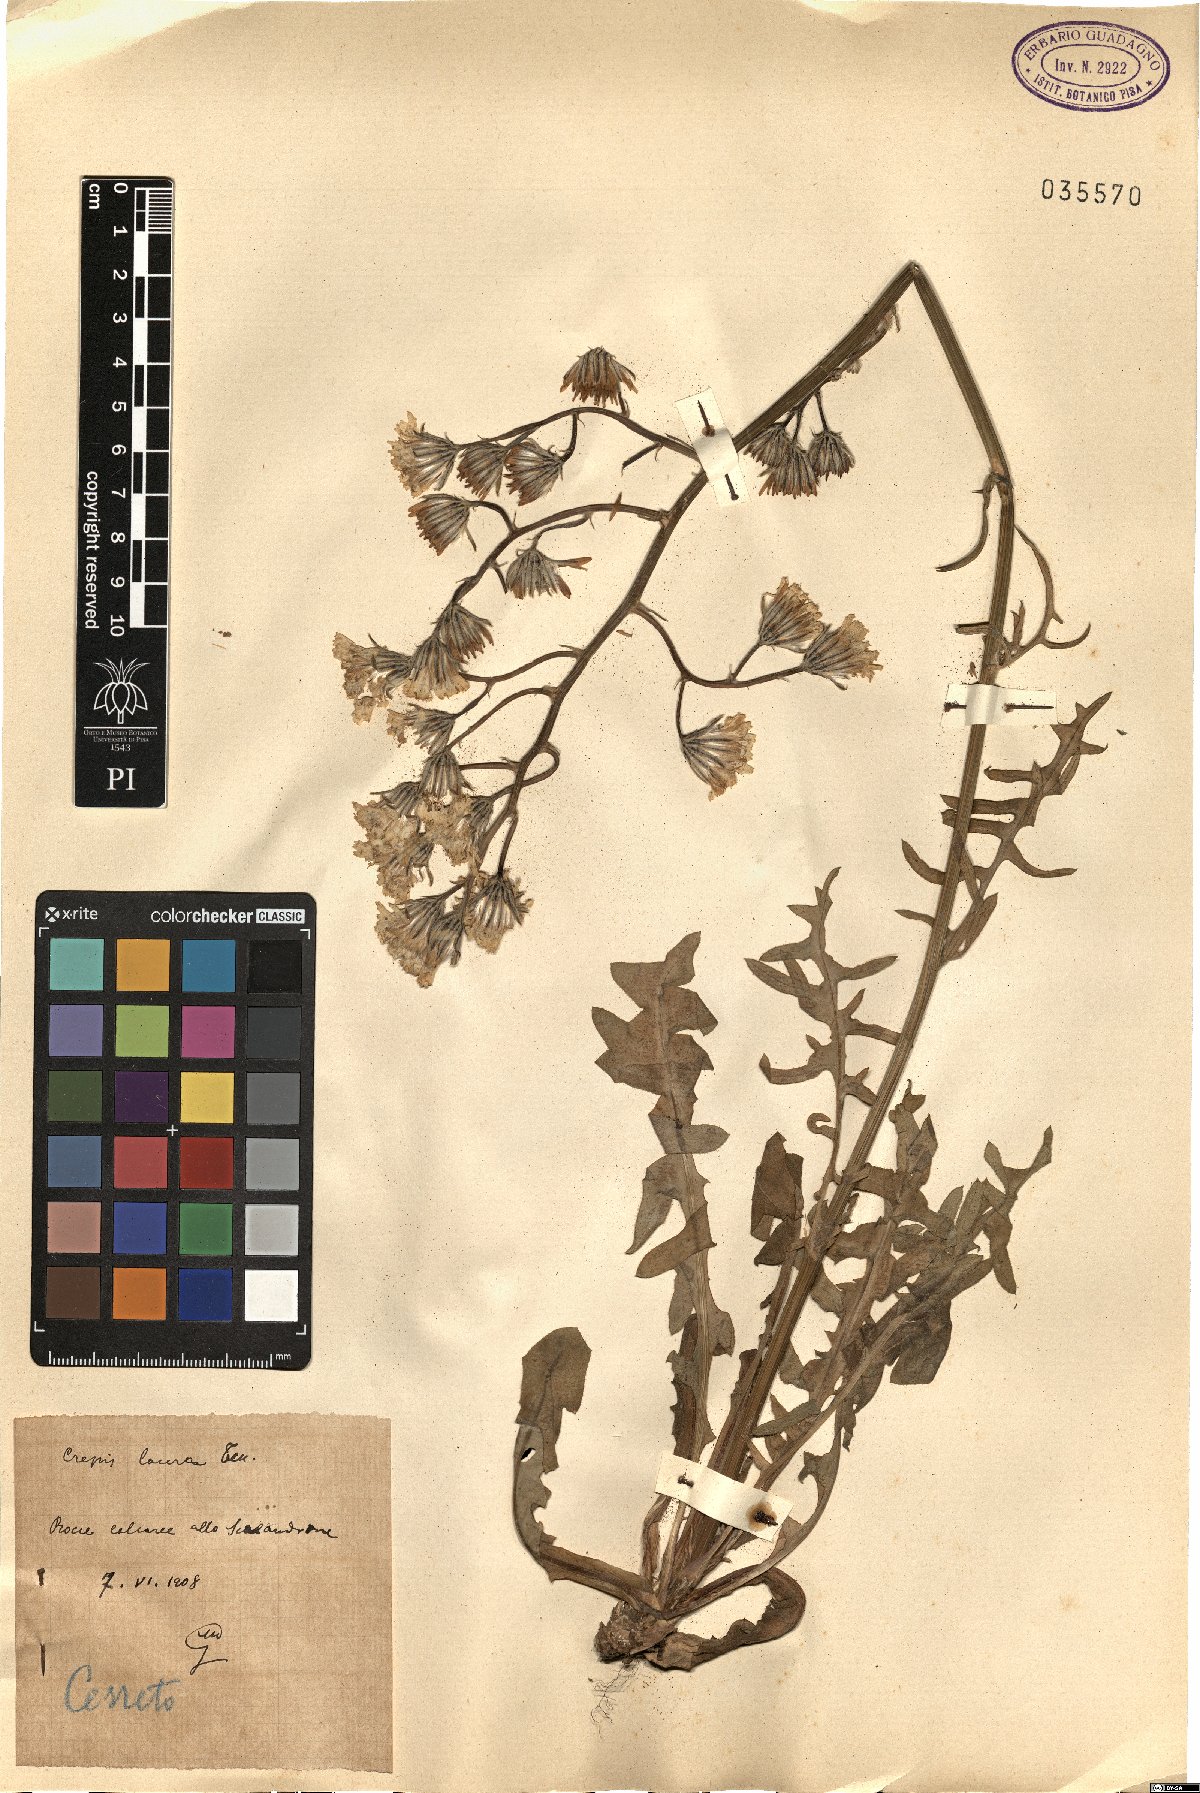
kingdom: Plantae
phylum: Tracheophyta
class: Magnoliopsida
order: Asterales
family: Asteraceae
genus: Crepis
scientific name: Crepis lacera
